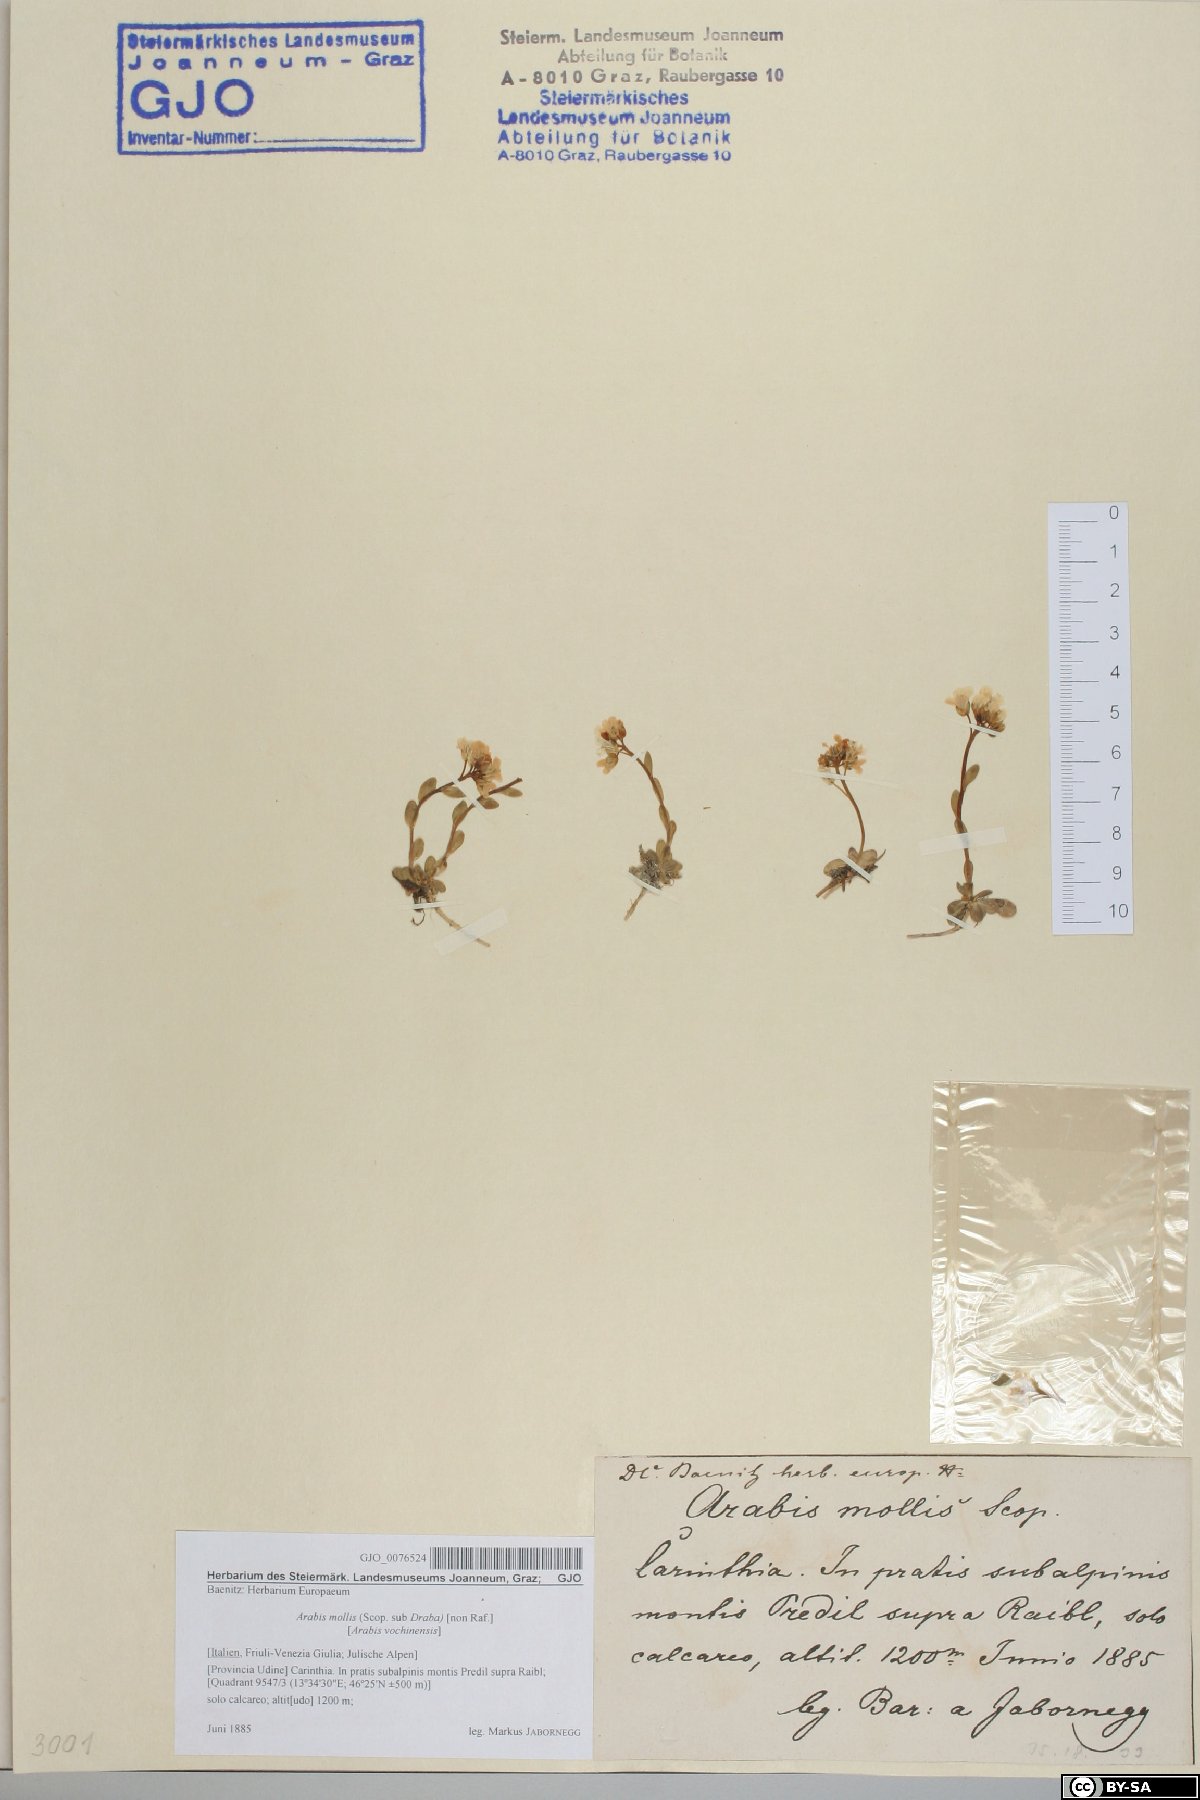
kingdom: Plantae
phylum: Tracheophyta
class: Magnoliopsida
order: Brassicales
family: Brassicaceae
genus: Arabis
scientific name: Arabis christiani
